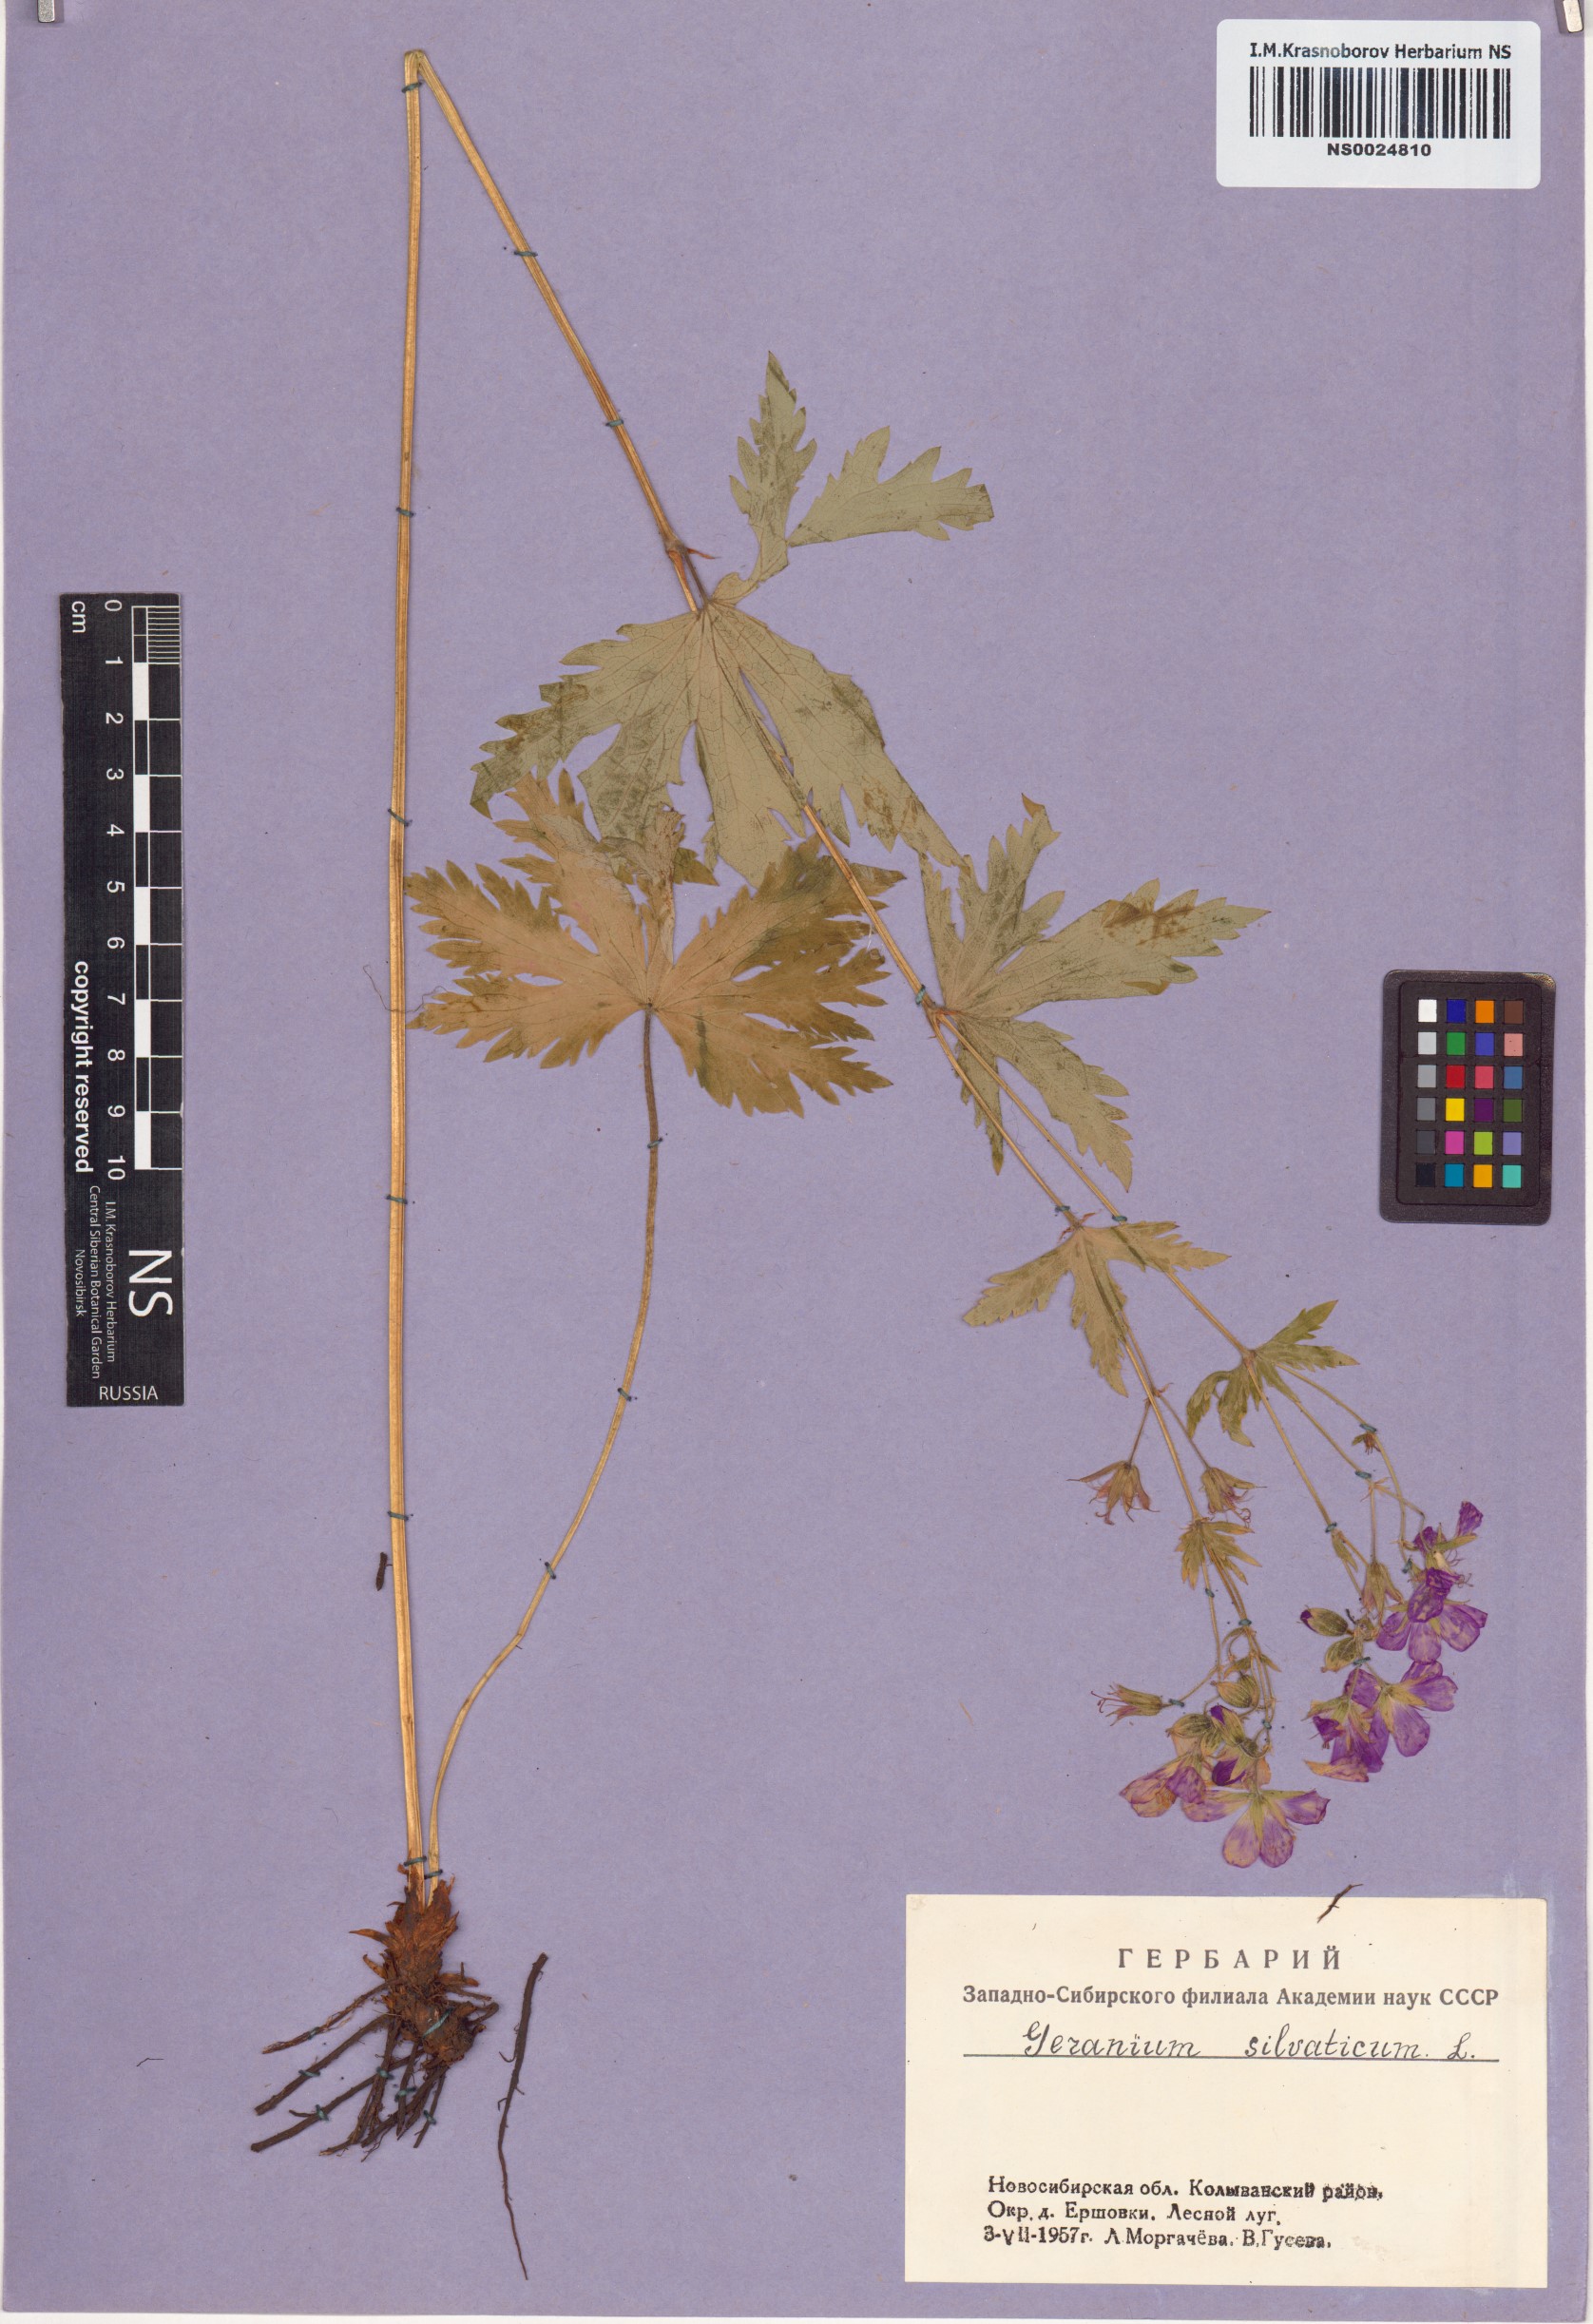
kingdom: Plantae
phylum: Tracheophyta
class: Magnoliopsida
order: Geraniales
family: Geraniaceae
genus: Geranium
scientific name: Geranium sylvaticum
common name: Wood crane's-bill
